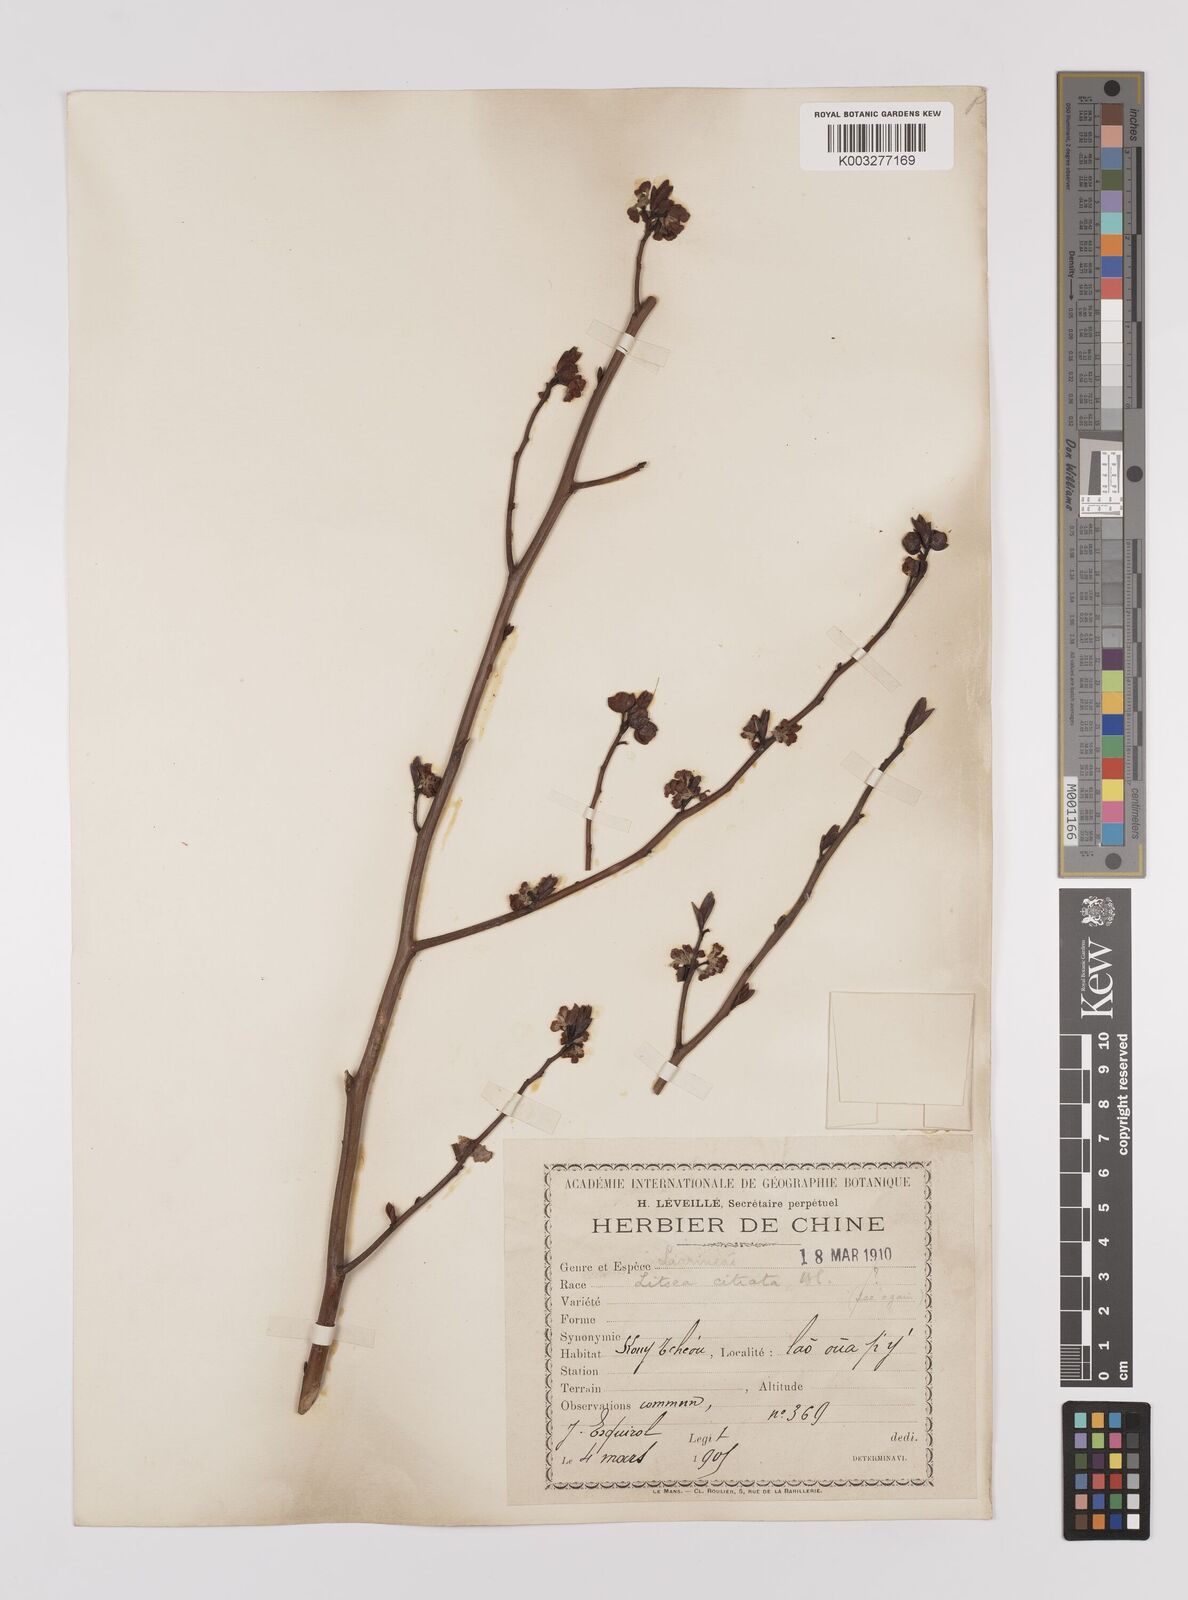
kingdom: Plantae
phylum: Tracheophyta
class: Magnoliopsida
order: Laurales
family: Lauraceae
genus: Litsea
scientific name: Litsea cubeba
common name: Mountain-pepper
